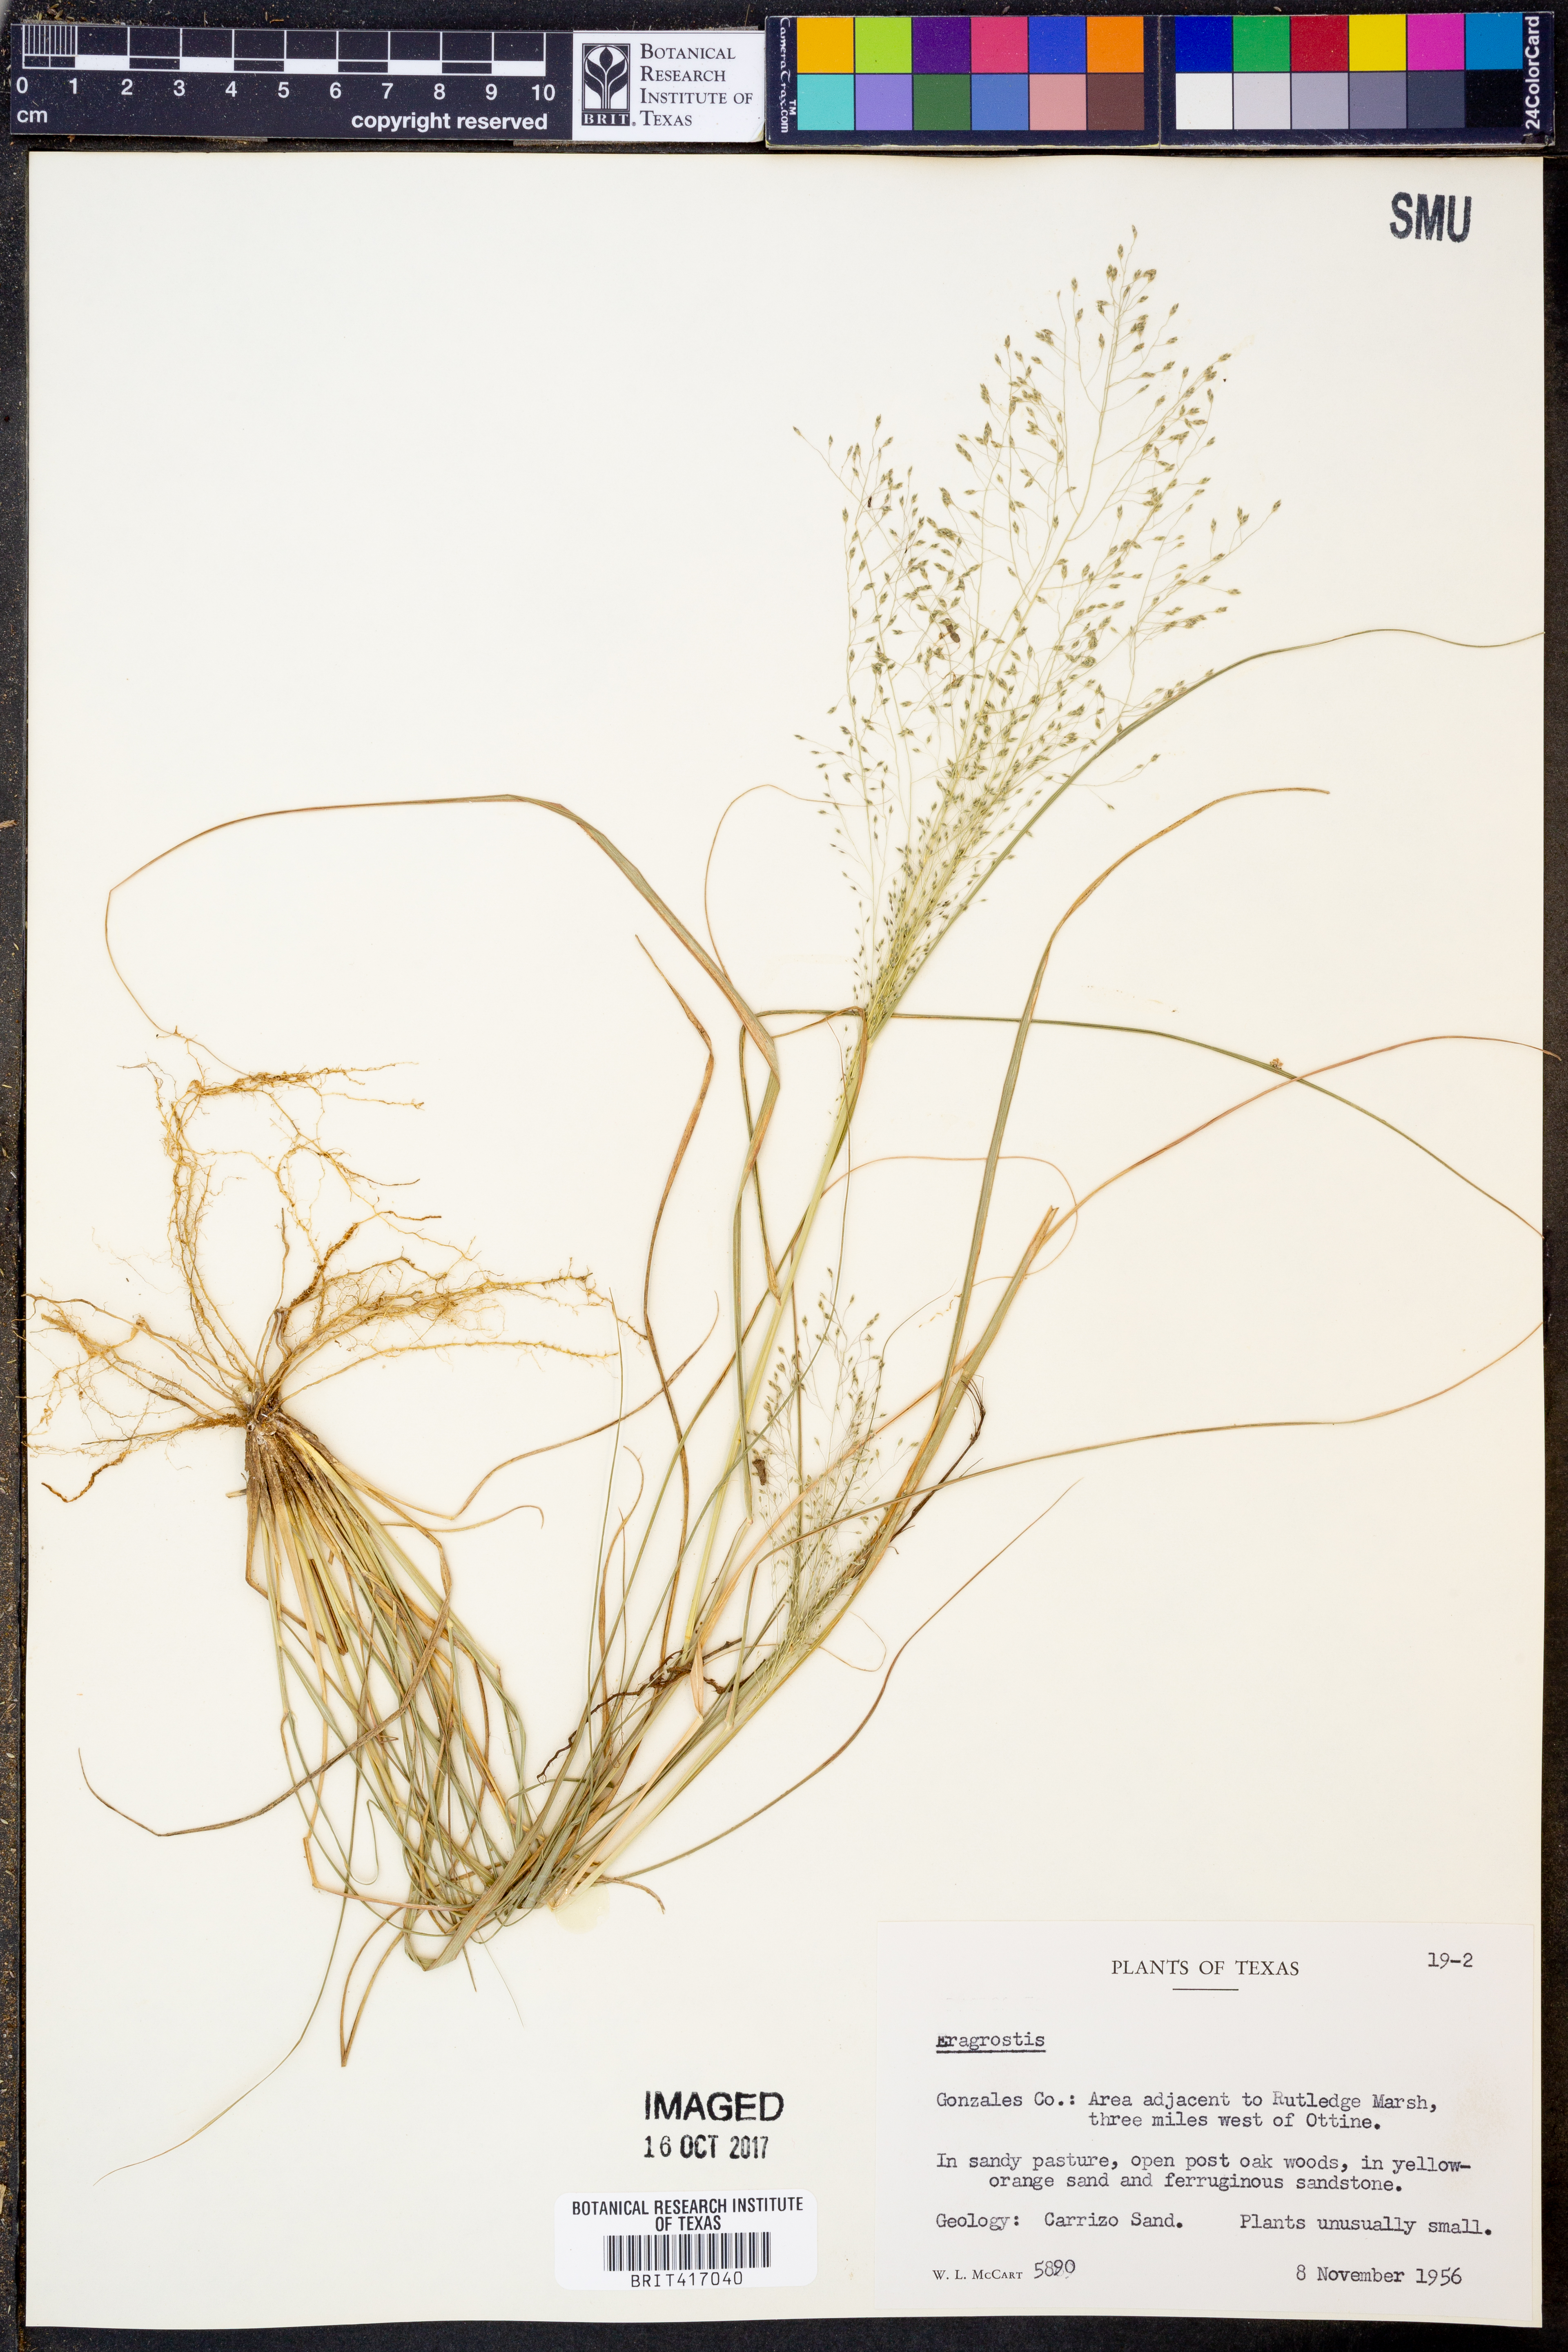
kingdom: Plantae
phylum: Tracheophyta
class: Liliopsida
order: Poales
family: Poaceae
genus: Eragrostis
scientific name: Eragrostis
